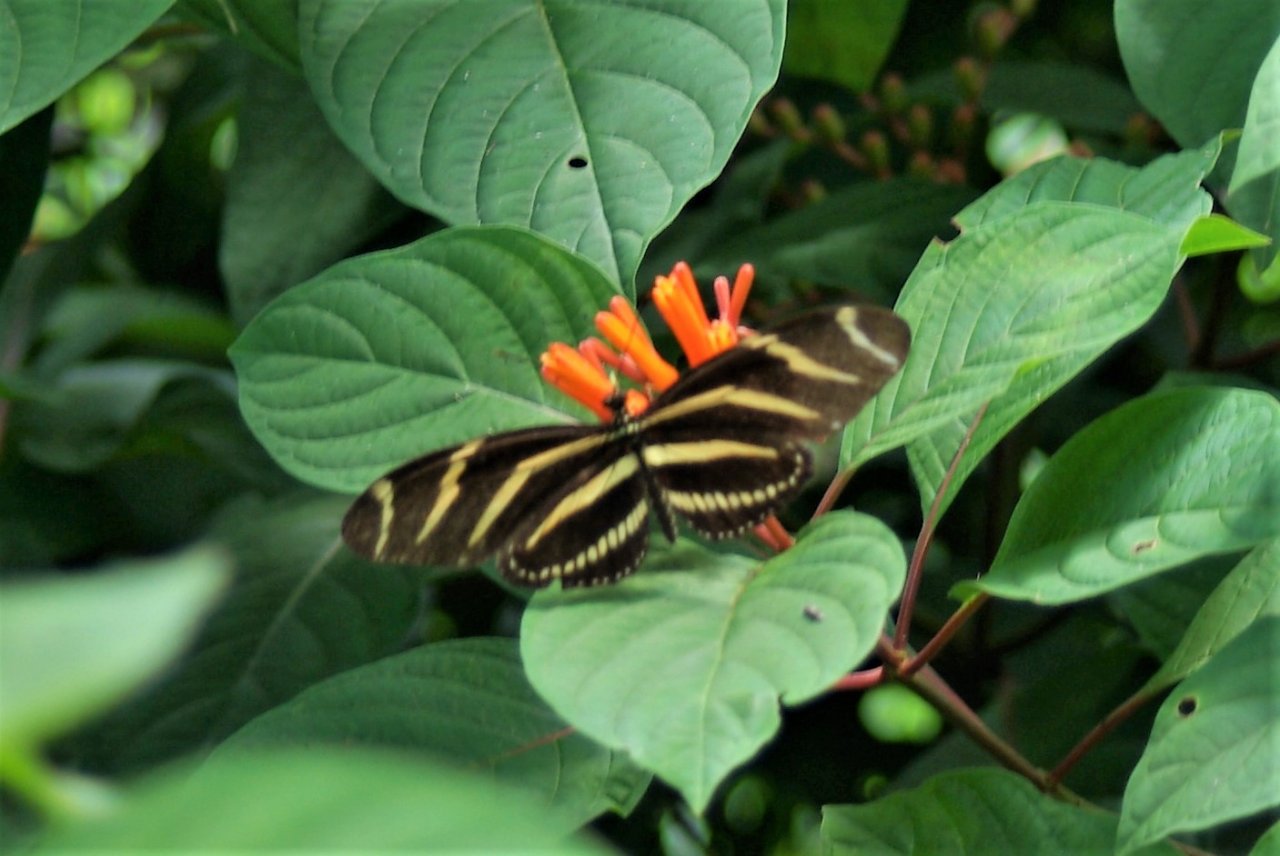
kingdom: Animalia
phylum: Arthropoda
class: Insecta
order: Lepidoptera
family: Nymphalidae
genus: Heliconius
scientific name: Heliconius charithonia
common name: Zebra Longwing
